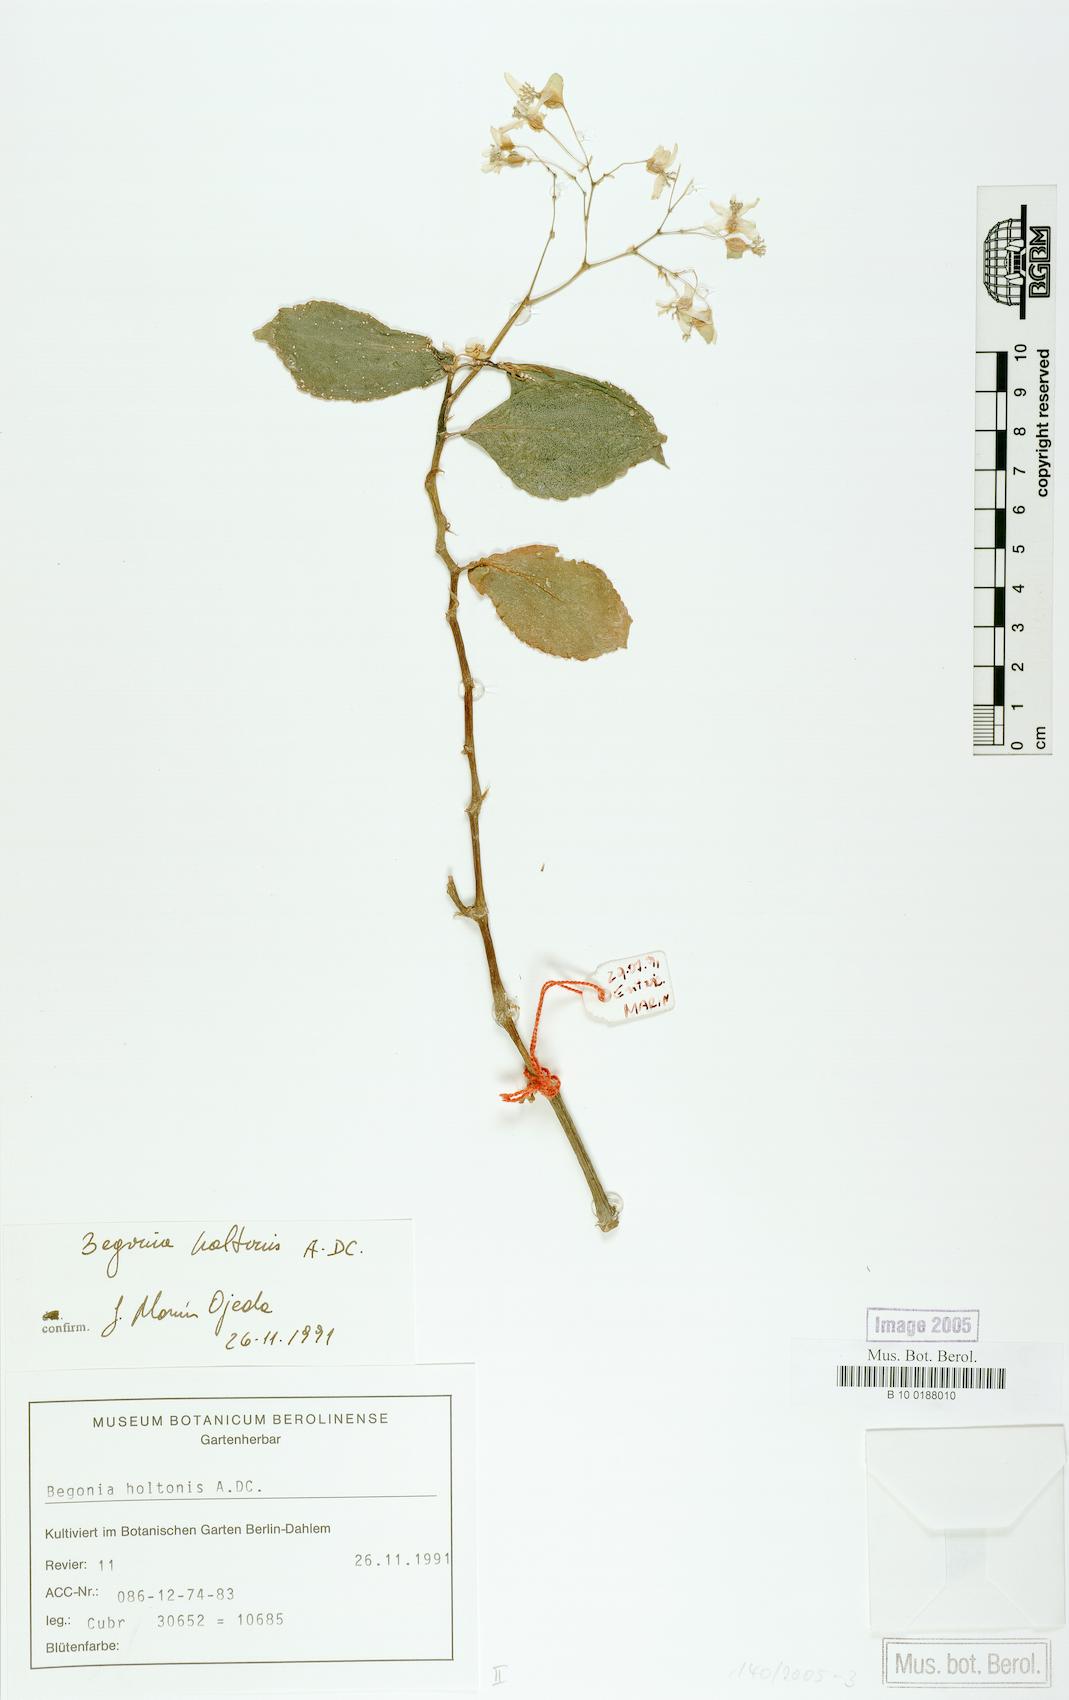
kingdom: Plantae
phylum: Tracheophyta
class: Magnoliopsida
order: Cucurbitales
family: Begoniaceae
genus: Begonia
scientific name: Begonia holtonis
